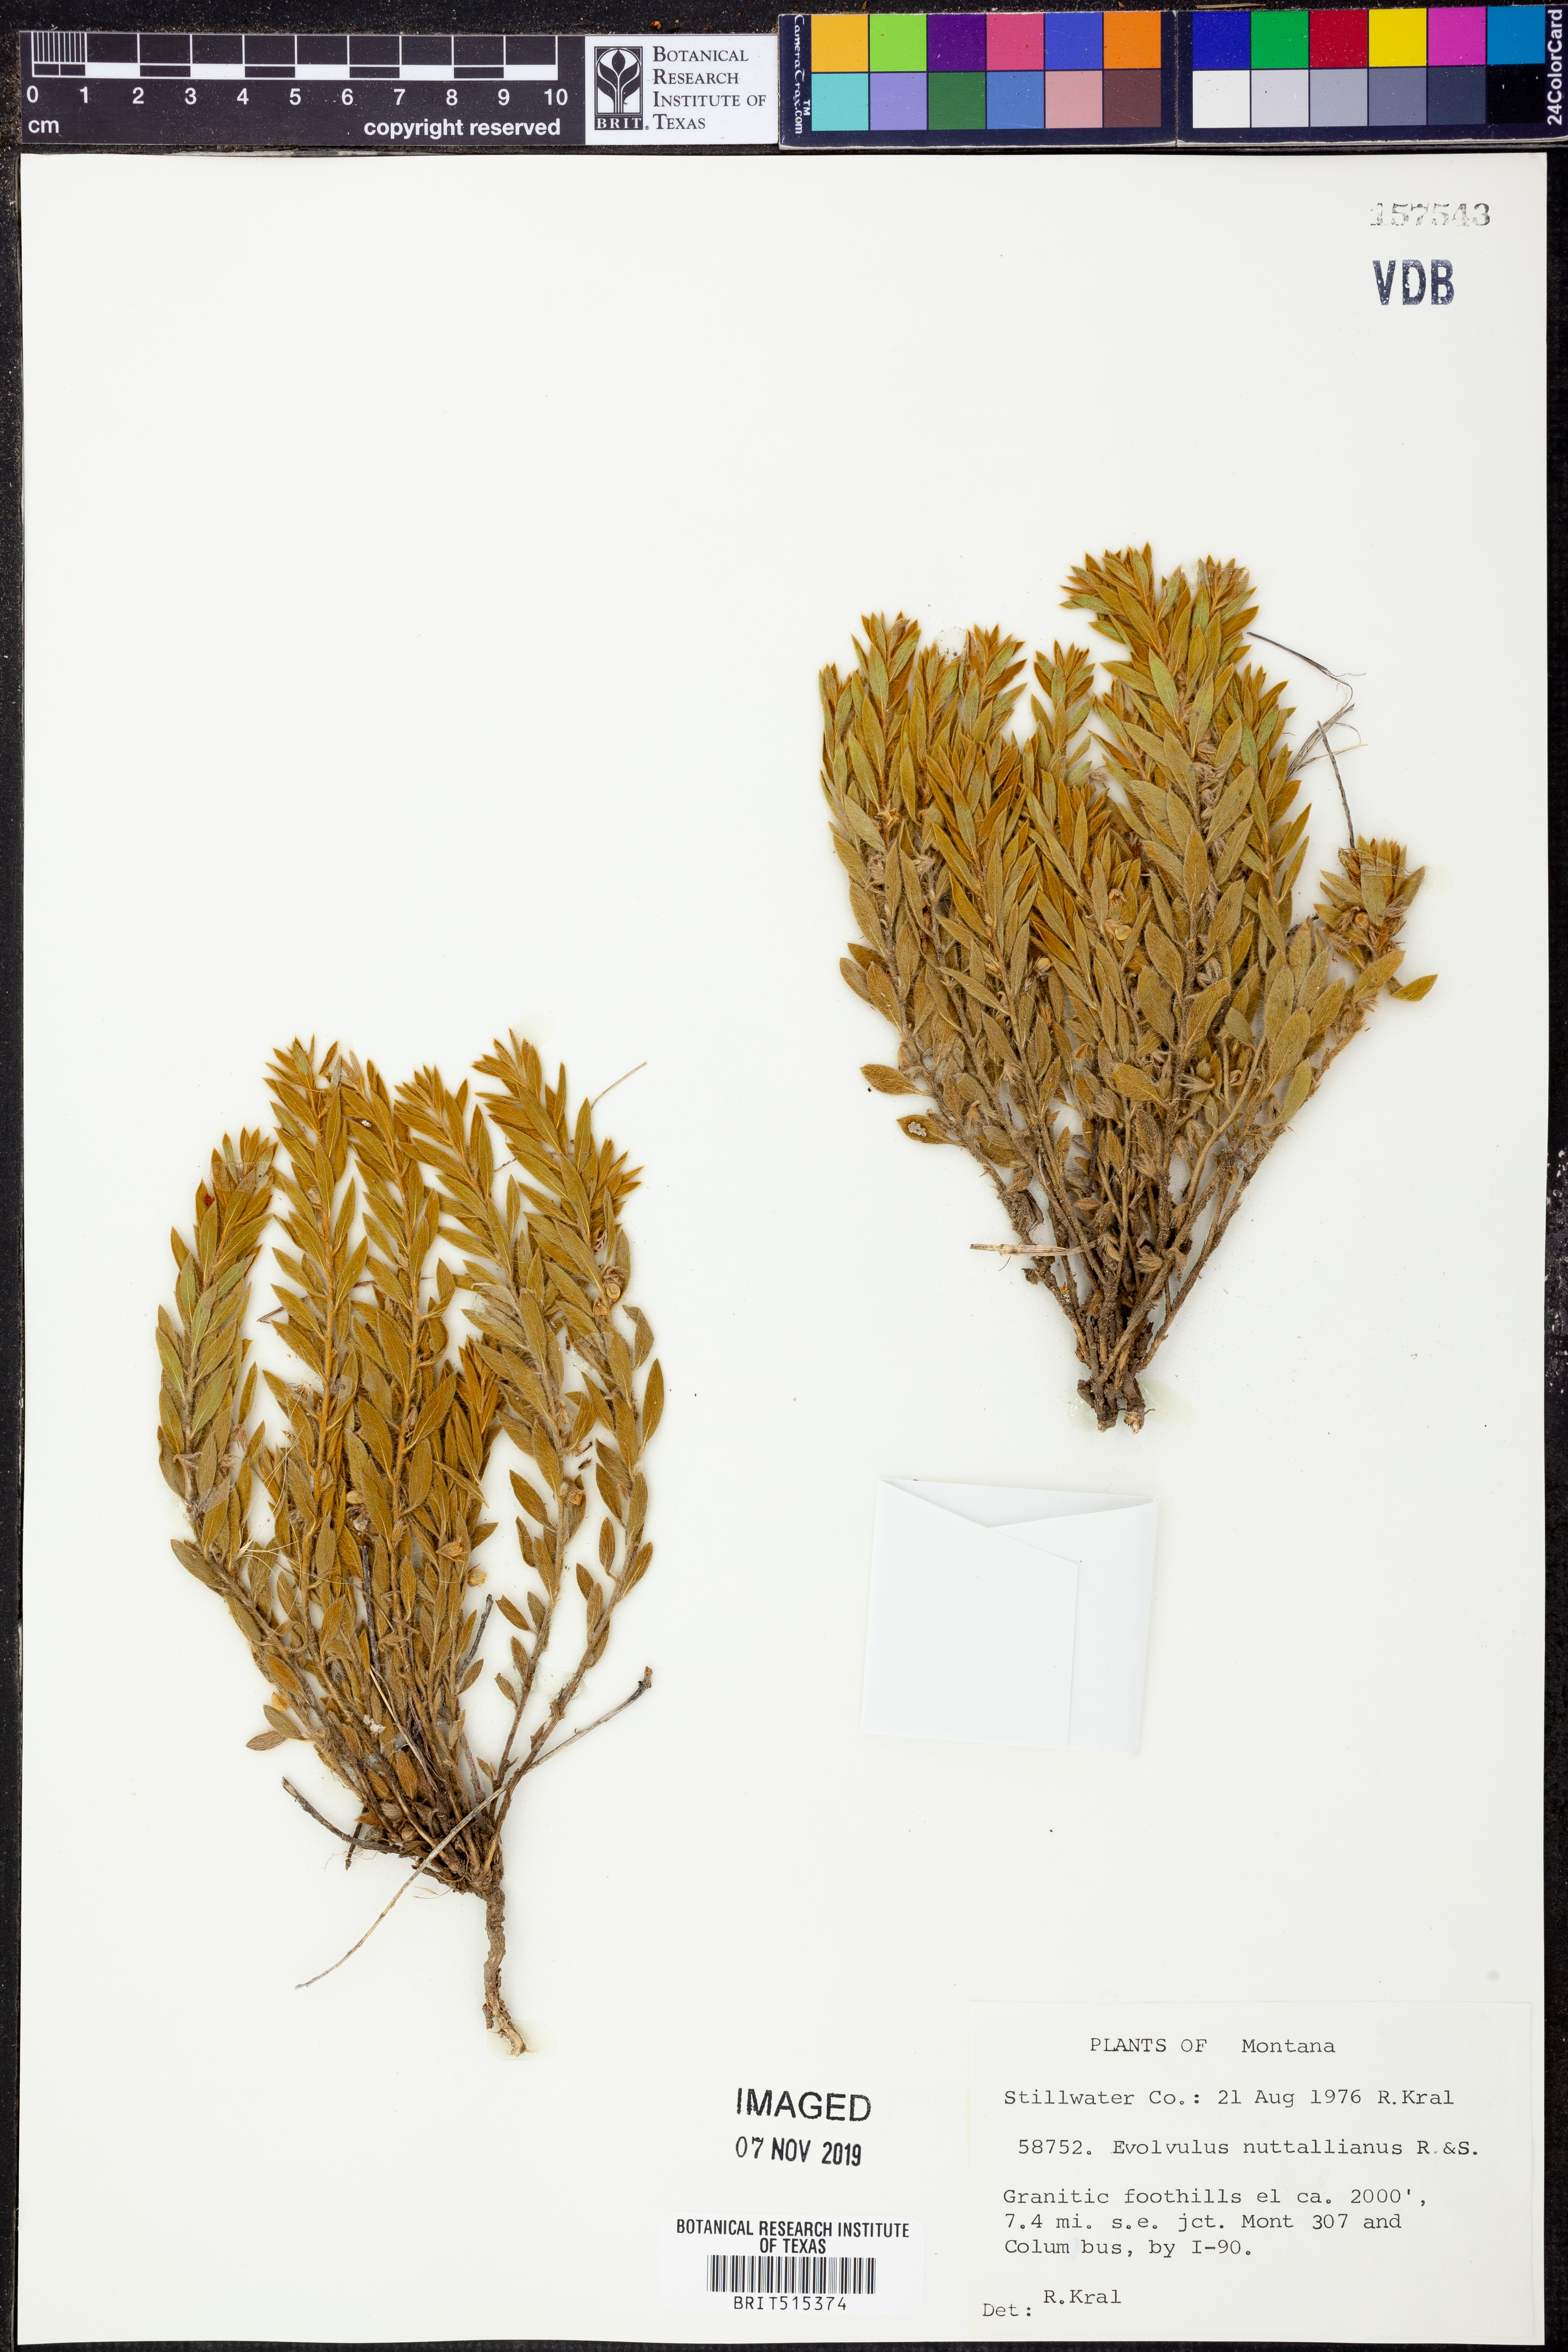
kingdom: Plantae
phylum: Tracheophyta
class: Magnoliopsida
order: Solanales
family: Convolvulaceae
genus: Evolvulus
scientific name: Evolvulus nuttallianus
